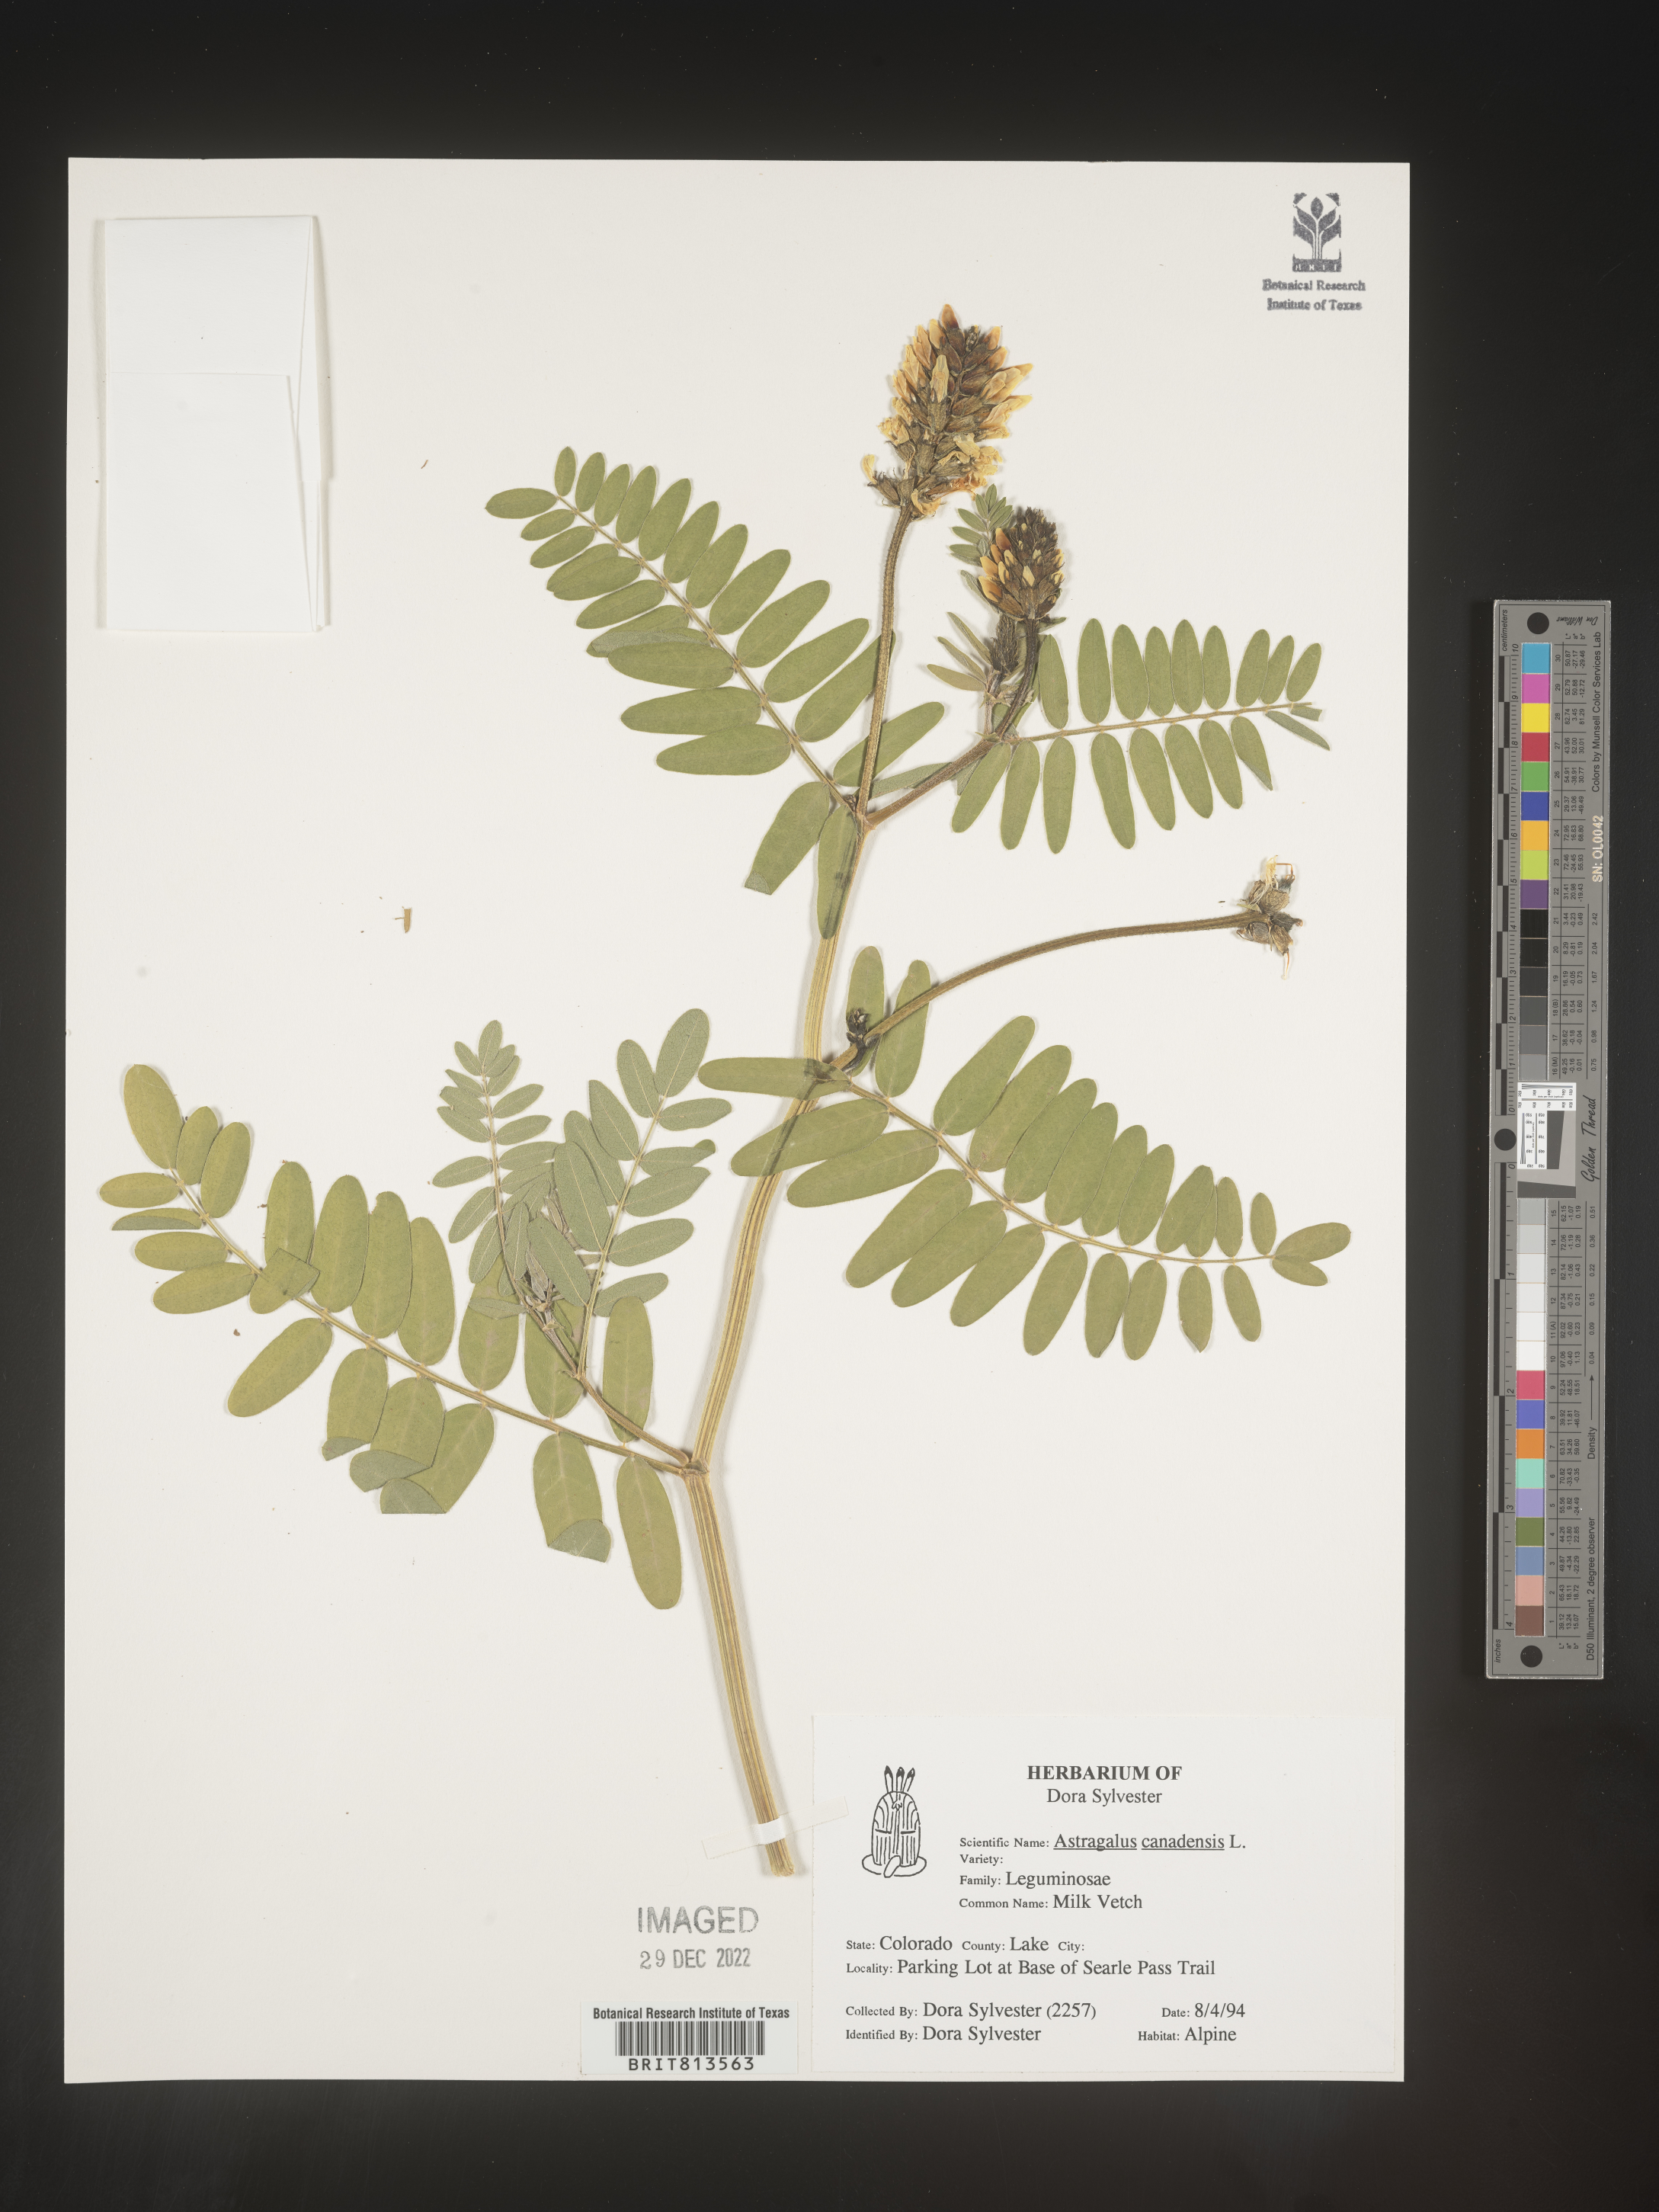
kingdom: Plantae
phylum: Tracheophyta
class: Magnoliopsida
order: Fabales
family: Fabaceae
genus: Astragalus
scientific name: Astragalus canadensis
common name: Canada milk-vetch
